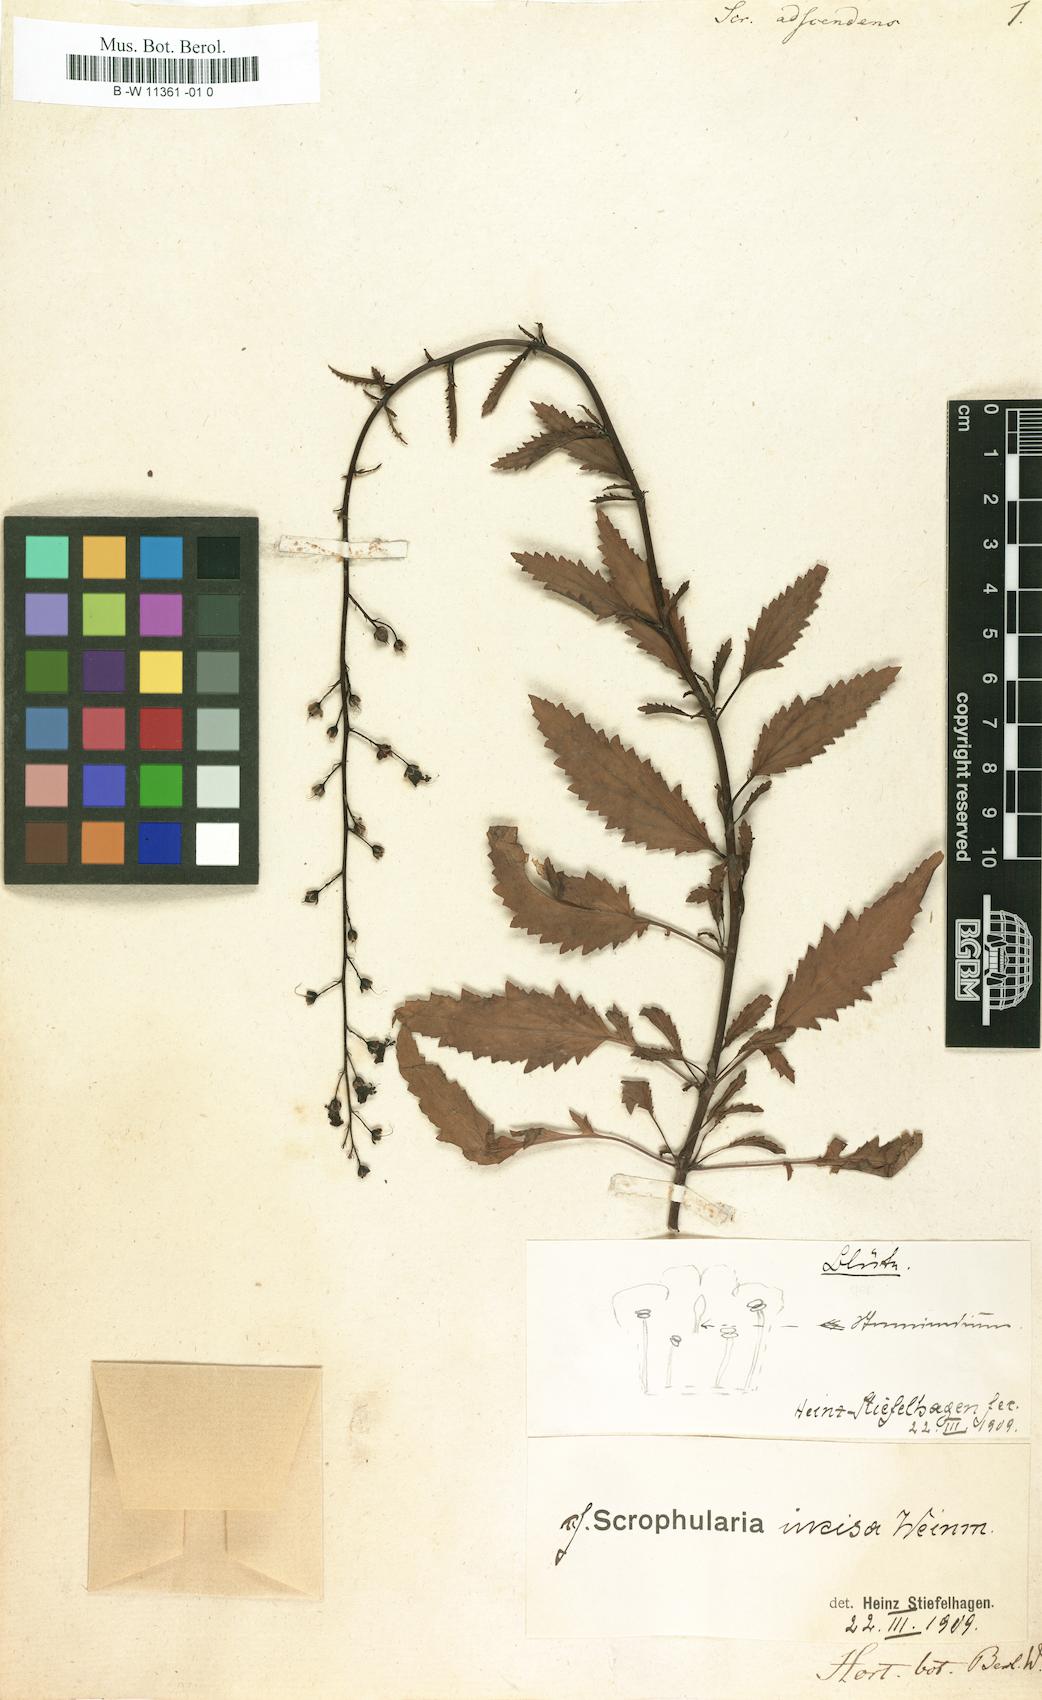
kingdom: Plantae
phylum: Tracheophyta
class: Magnoliopsida
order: Lamiales
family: Scrophulariaceae
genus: Scrophularia
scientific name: Scrophularia incisa
